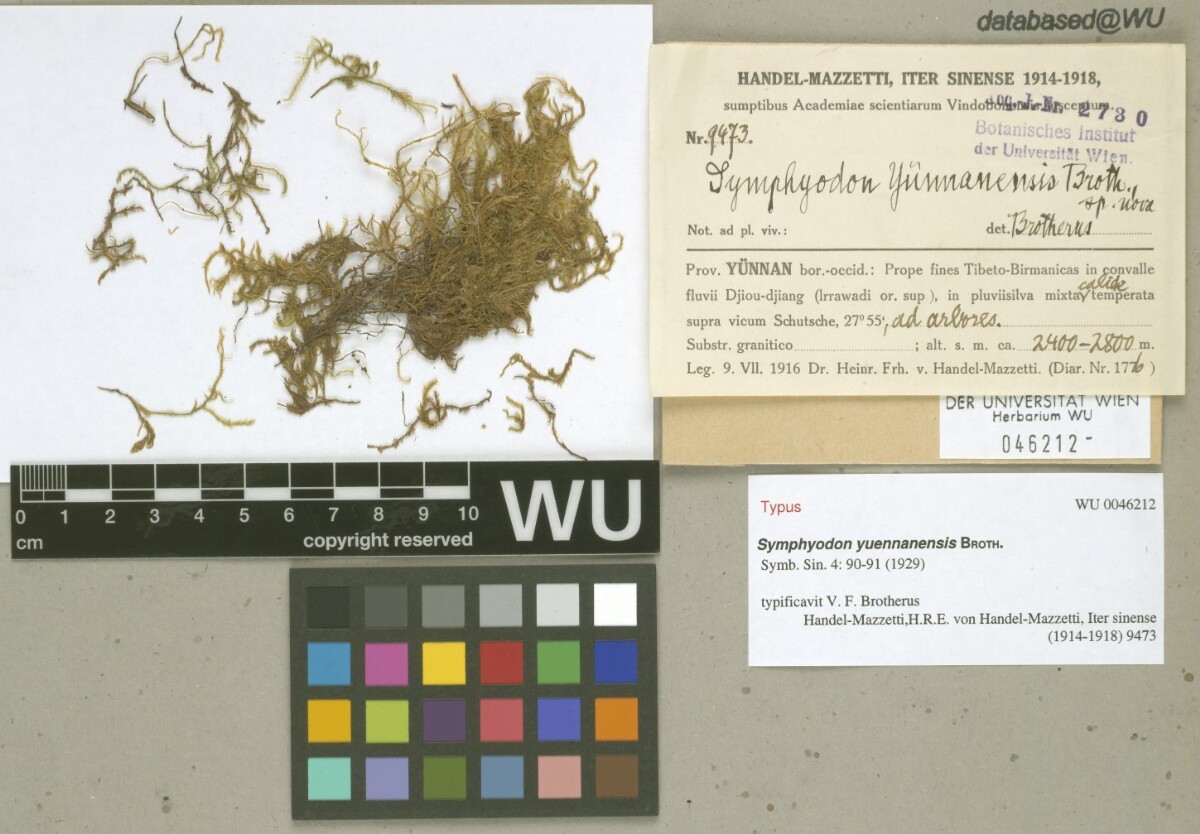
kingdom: Plantae
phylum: Bryophyta
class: Bryopsida
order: Hypnales
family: Symphyodontaceae
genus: Symphyodon
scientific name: Symphyodon yuennanensis
